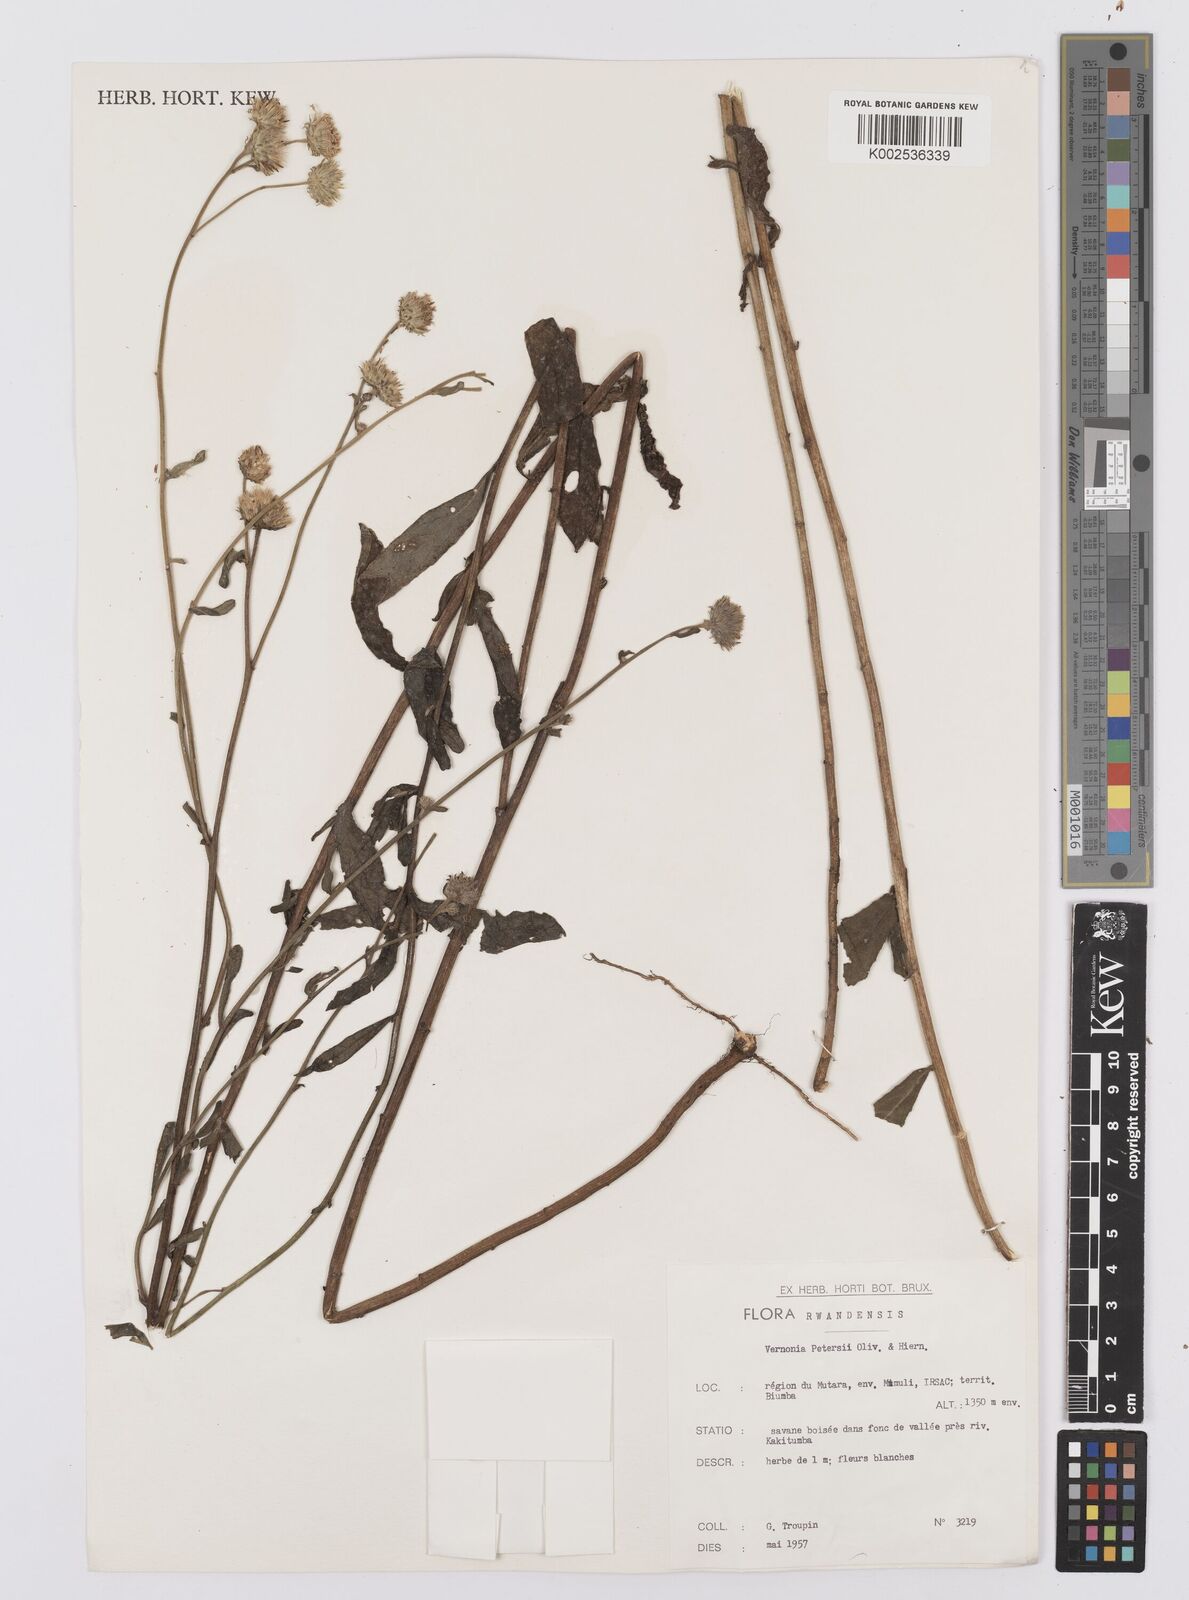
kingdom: Plantae
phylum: Tracheophyta
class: Magnoliopsida
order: Asterales
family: Asteraceae
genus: Vernoniastrum
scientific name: Vernoniastrum latifolium
